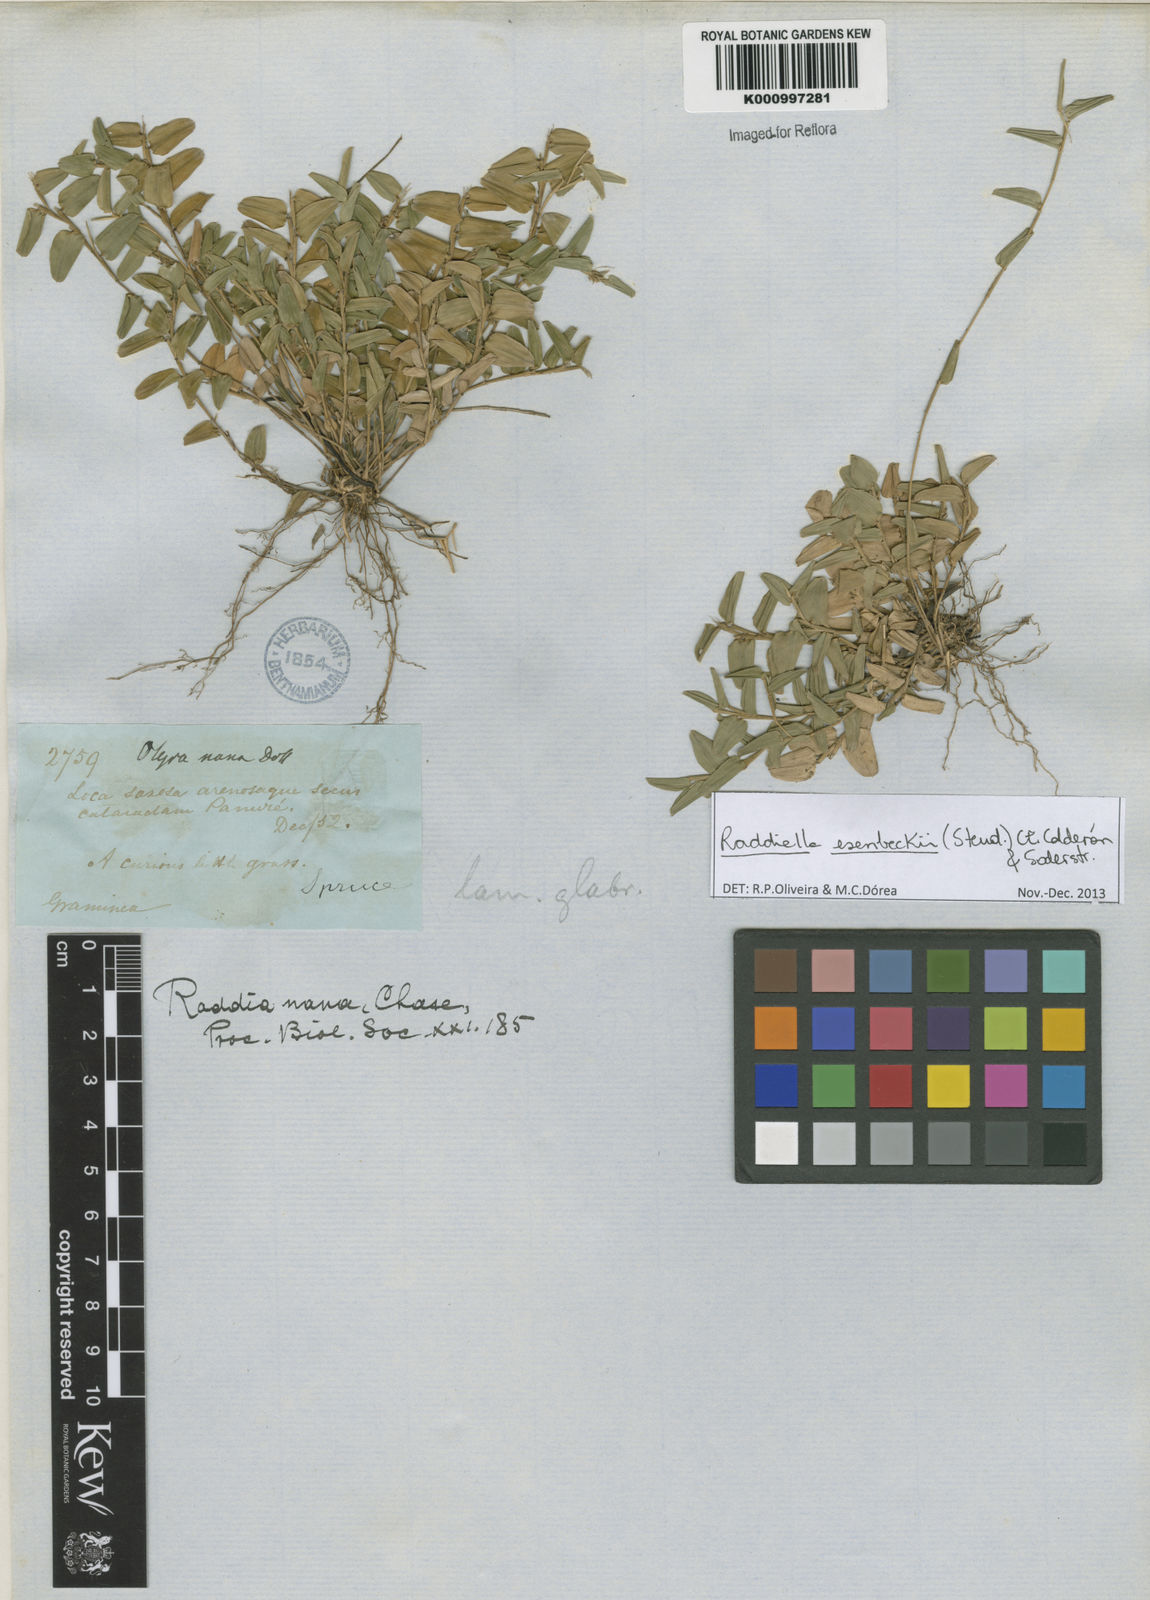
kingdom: Plantae
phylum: Tracheophyta
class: Liliopsida
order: Poales
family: Poaceae
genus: Raddiella
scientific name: Raddiella
